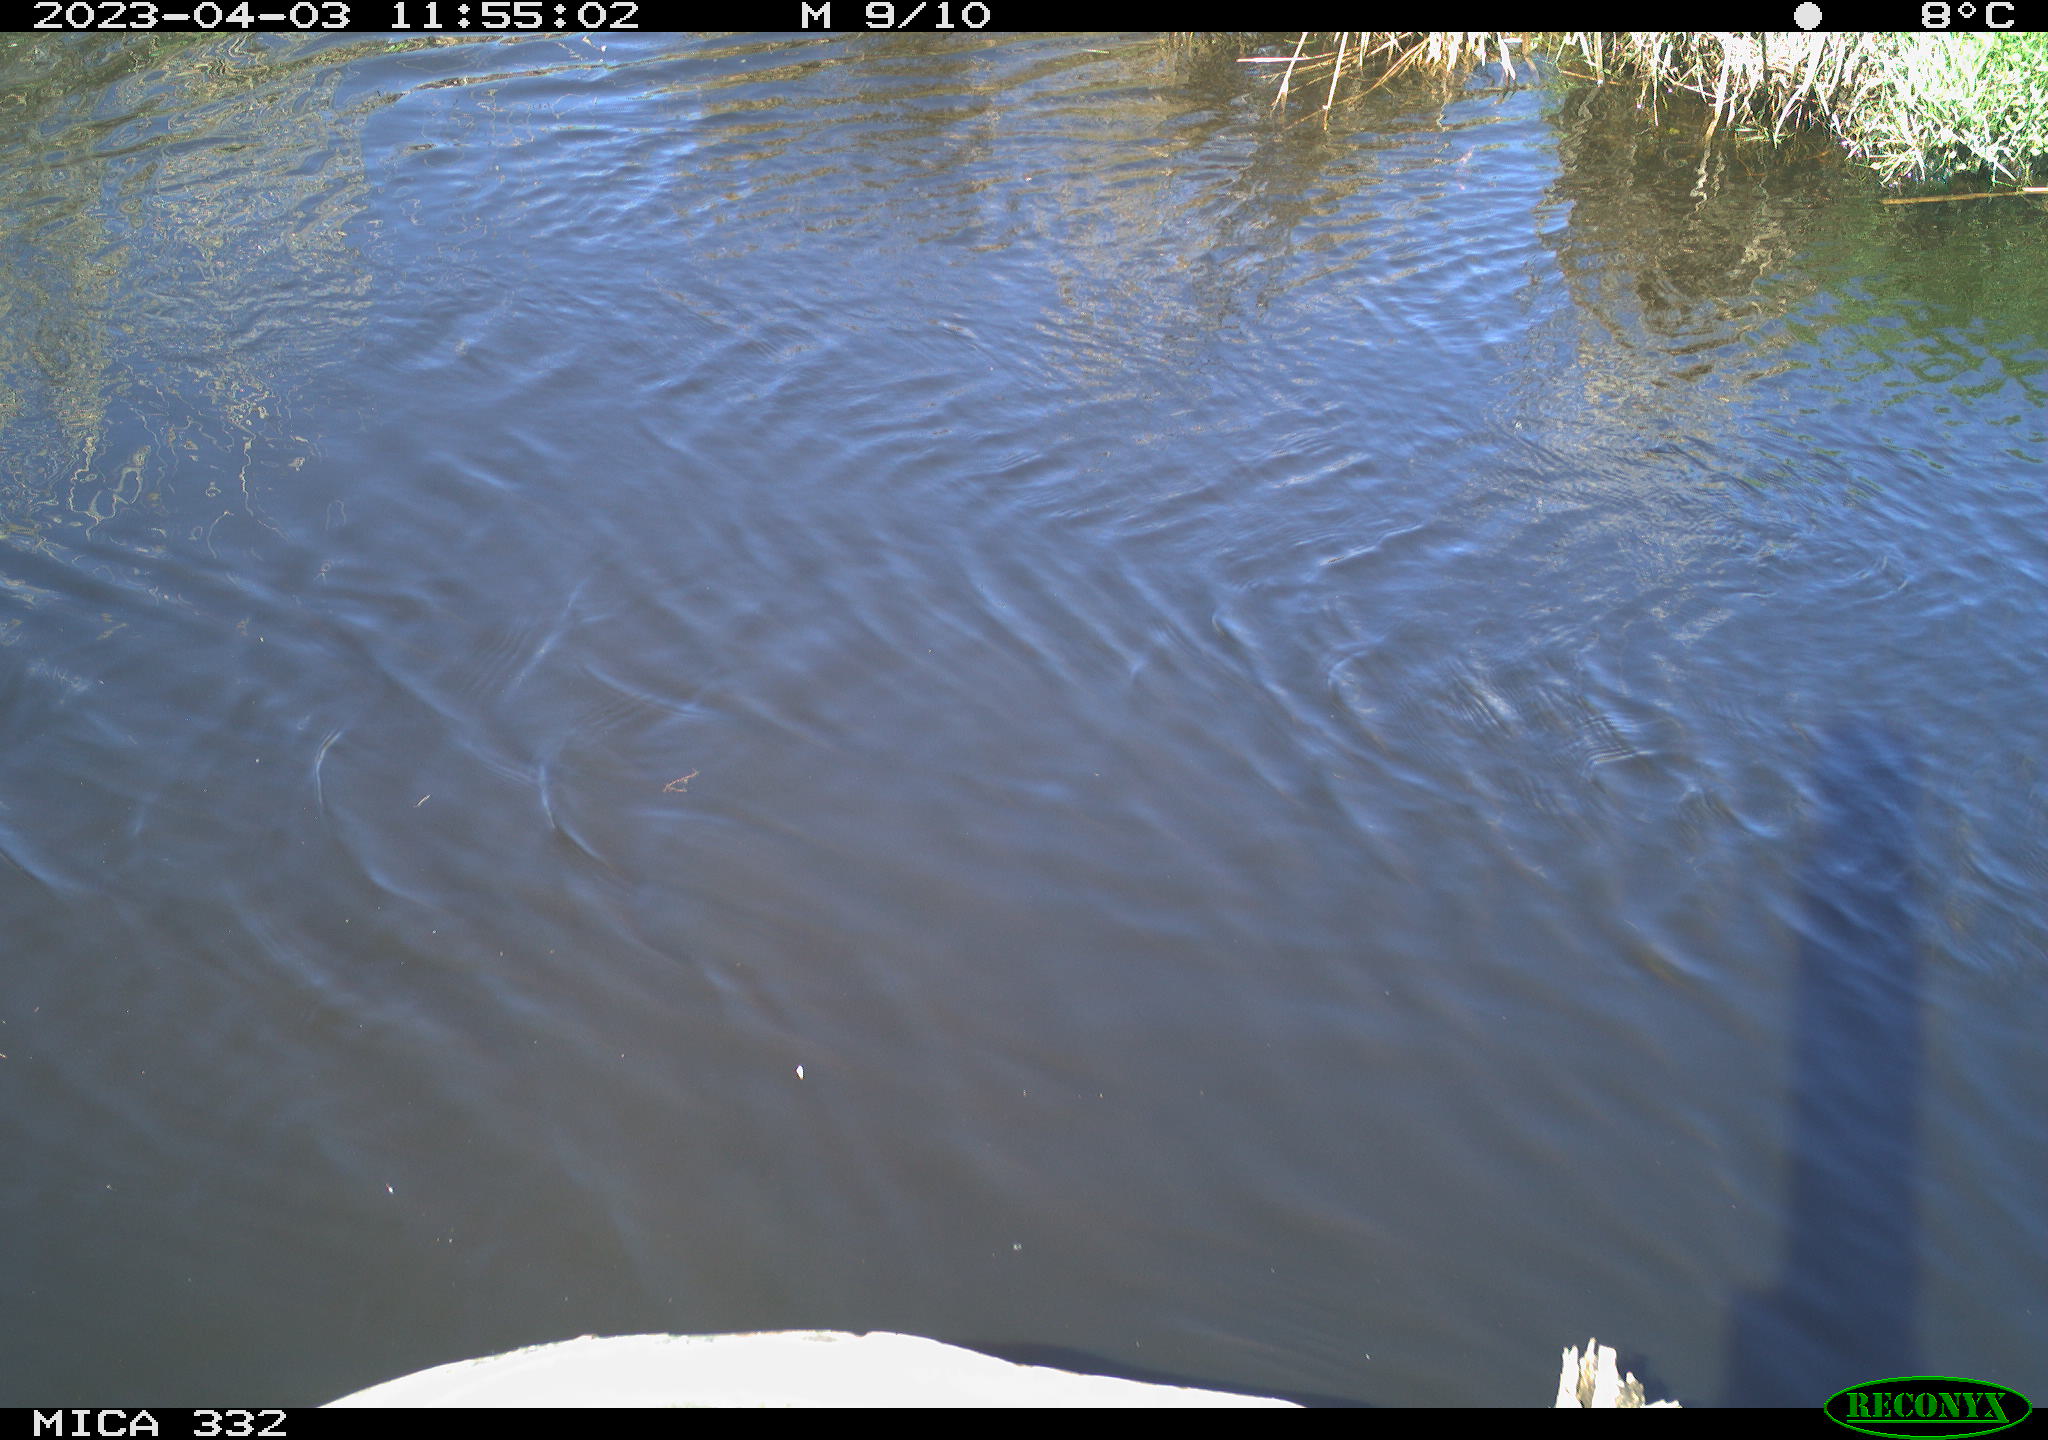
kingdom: Animalia
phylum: Chordata
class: Aves
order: Anseriformes
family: Anatidae
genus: Cygnus
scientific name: Cygnus olor
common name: Mute swan
